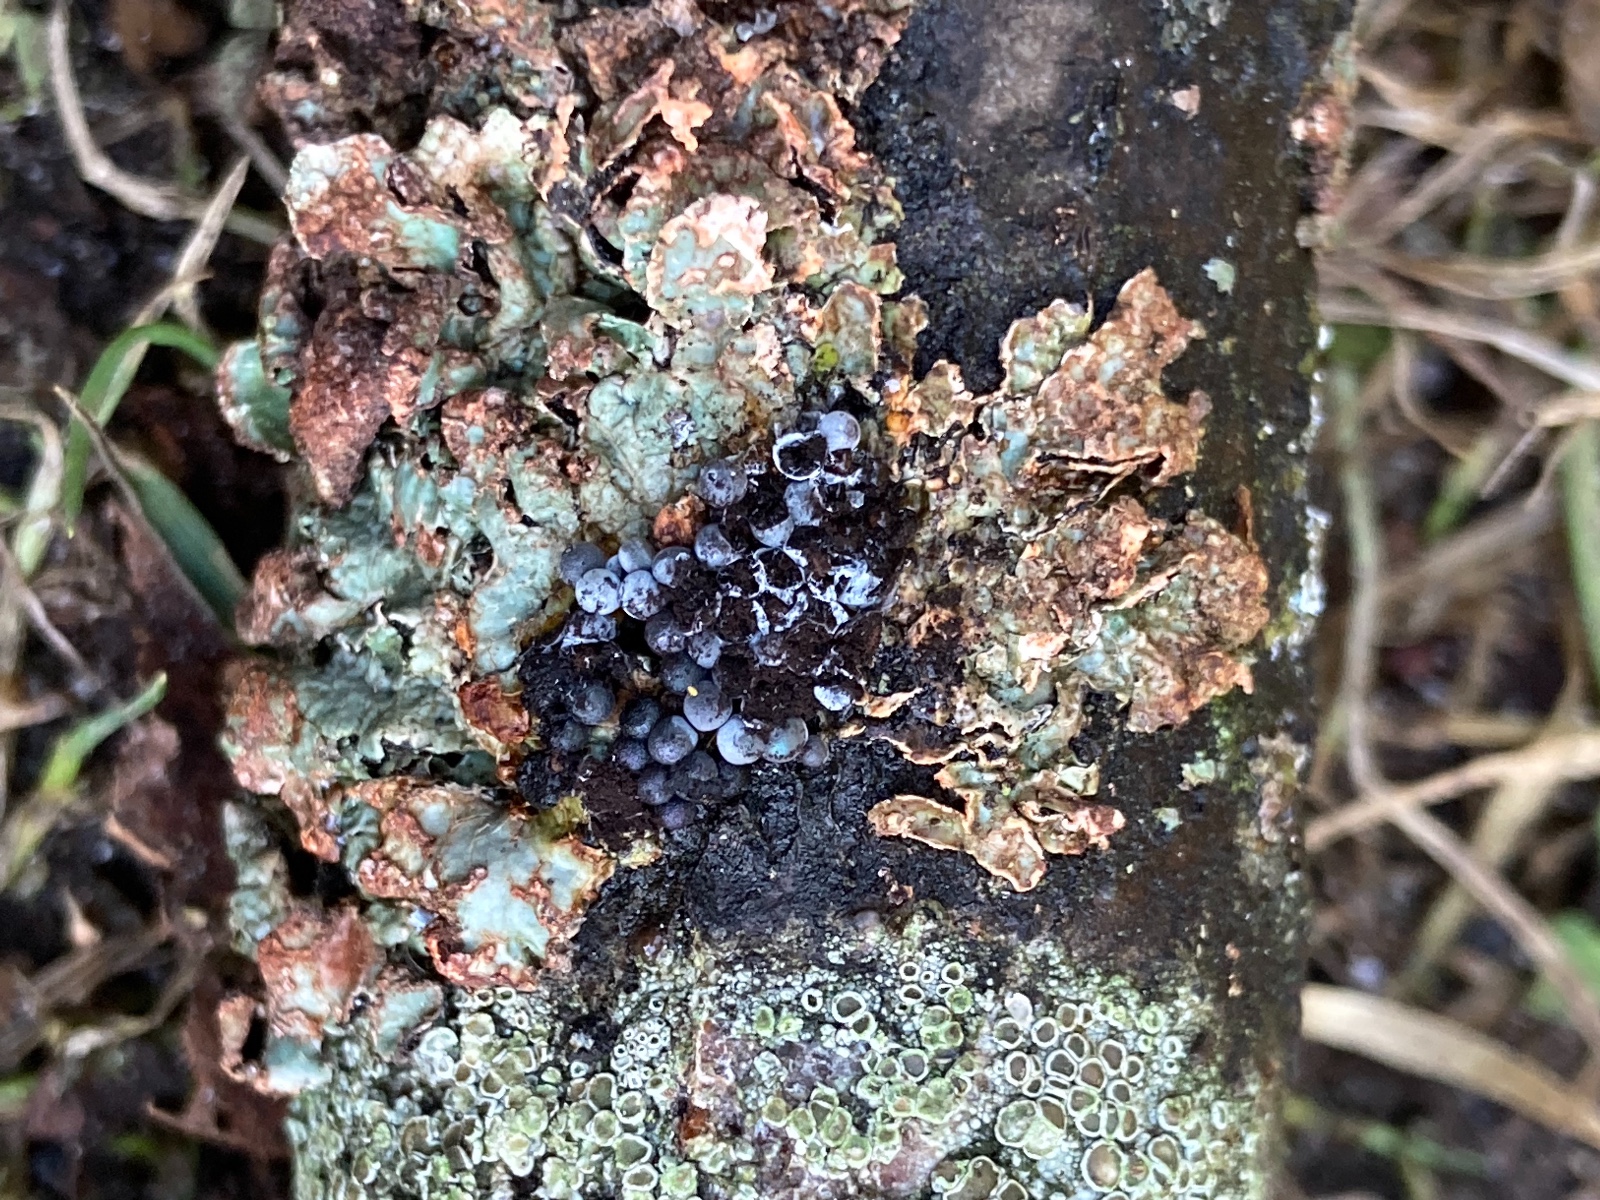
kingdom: Protozoa
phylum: Mycetozoa
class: Myxomycetes
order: Physarales
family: Physaraceae
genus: Badhamia
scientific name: Badhamia capsulifera
